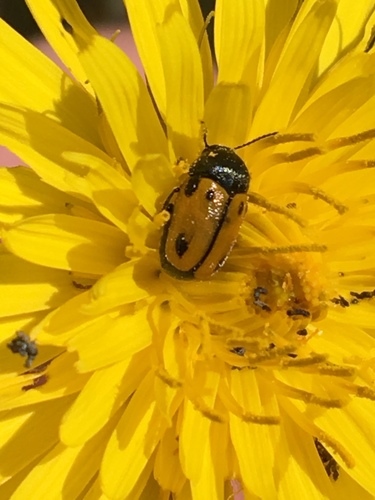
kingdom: Animalia
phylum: Arthropoda
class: Insecta
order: Coleoptera
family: Chrysomelidae
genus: Cryptocephalus
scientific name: Cryptocephalus rugicollis
